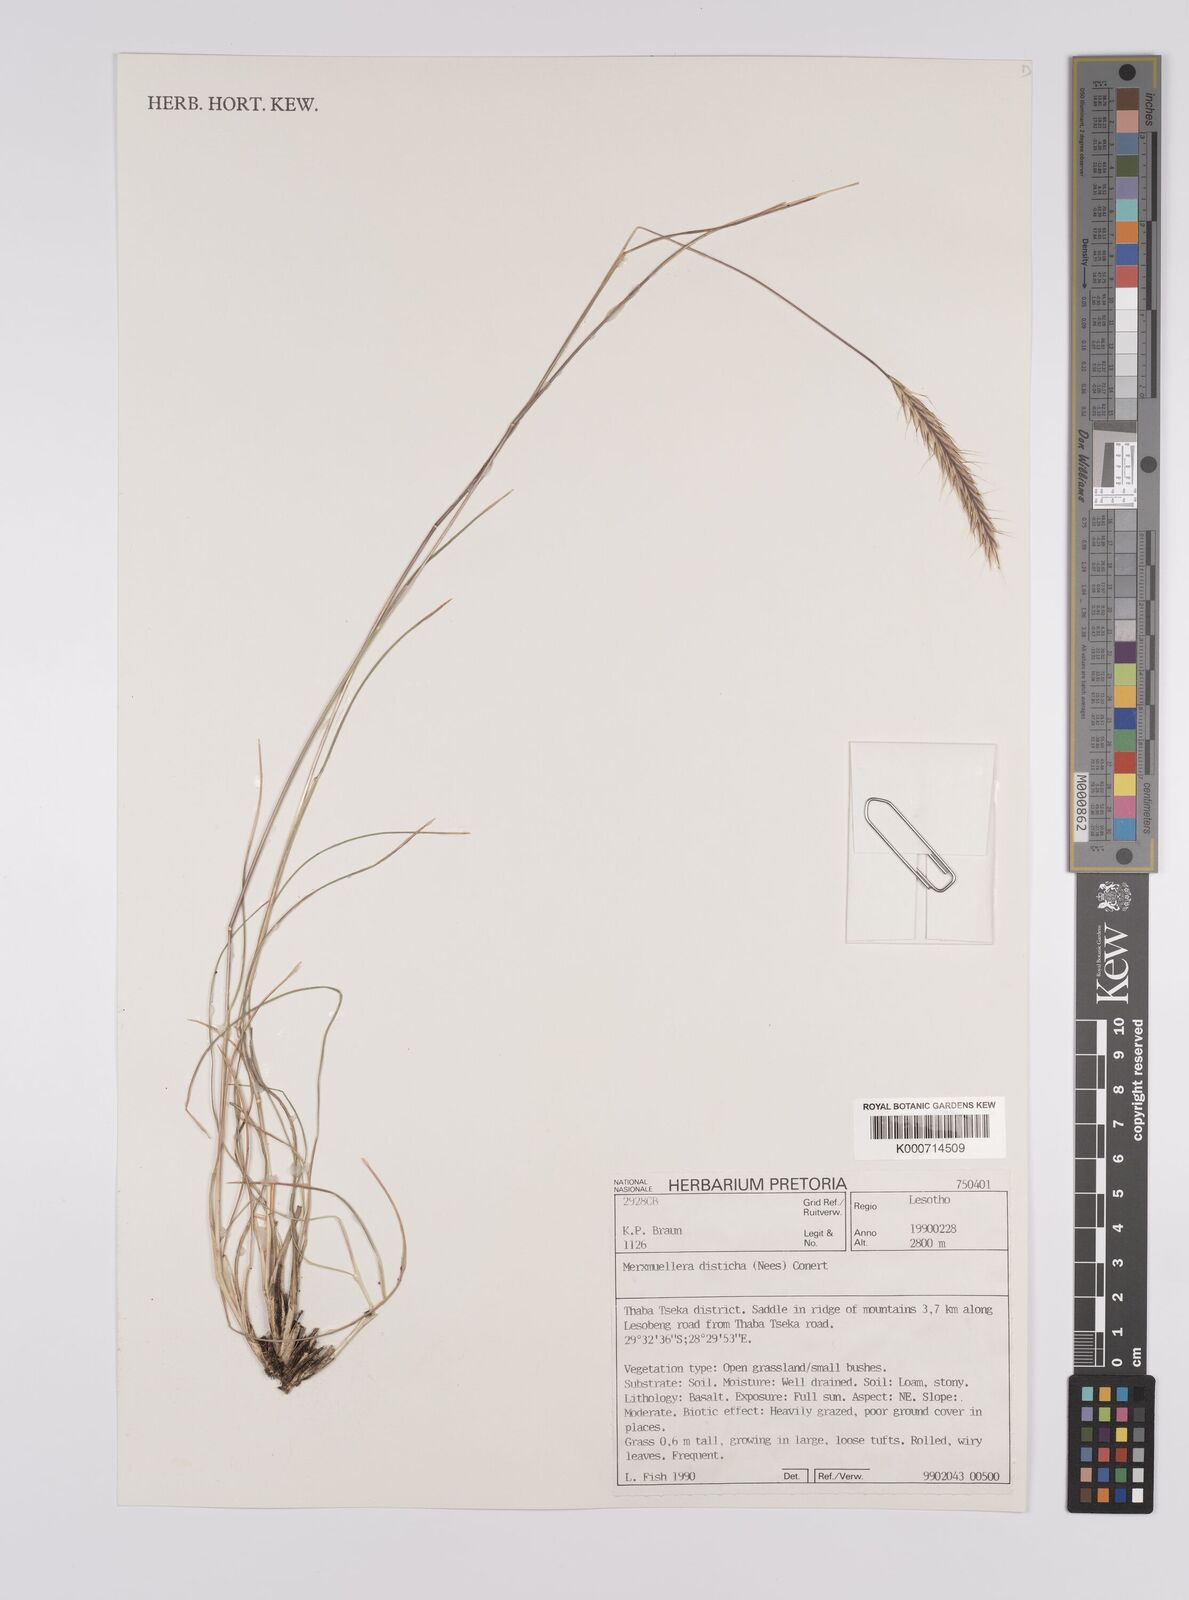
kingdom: Plantae
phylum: Tracheophyta
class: Liliopsida
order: Poales
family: Poaceae
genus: Tenaxia
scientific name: Tenaxia disticha
